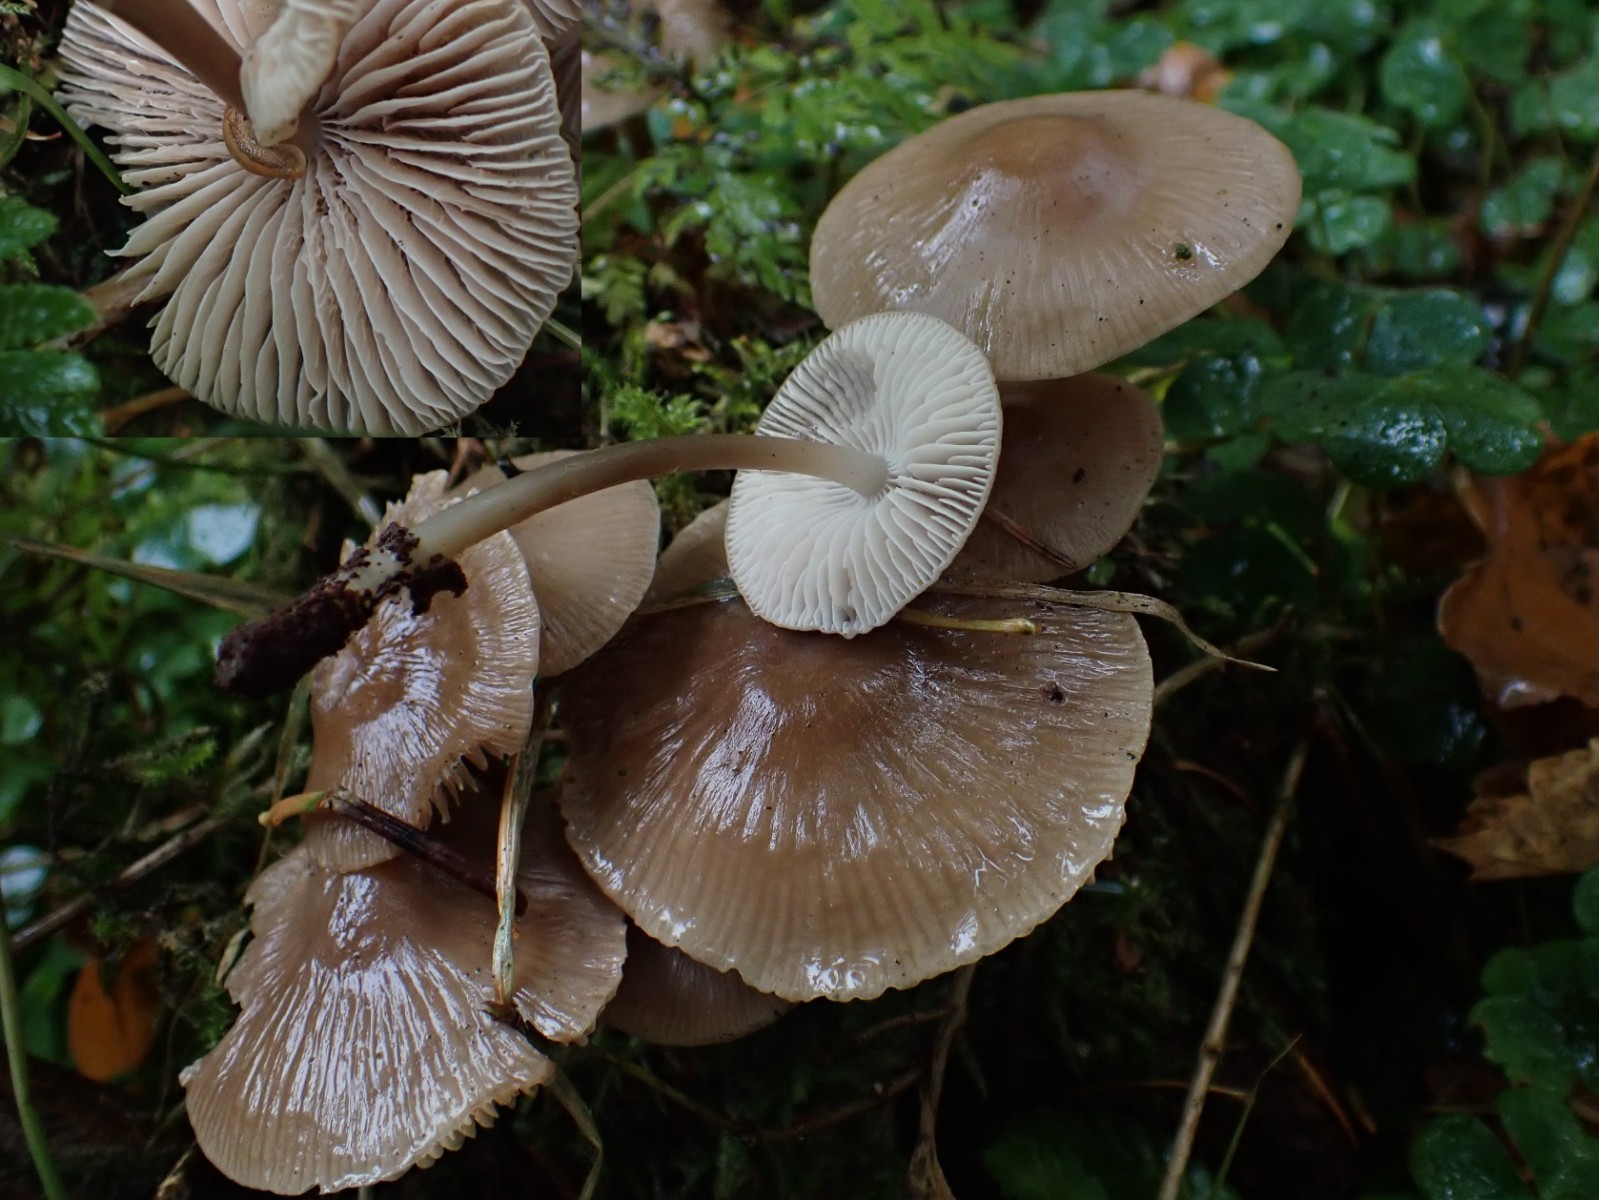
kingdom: Fungi
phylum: Basidiomycota
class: Agaricomycetes
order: Agaricales
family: Mycenaceae
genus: Mycena
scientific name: Mycena galericulata
